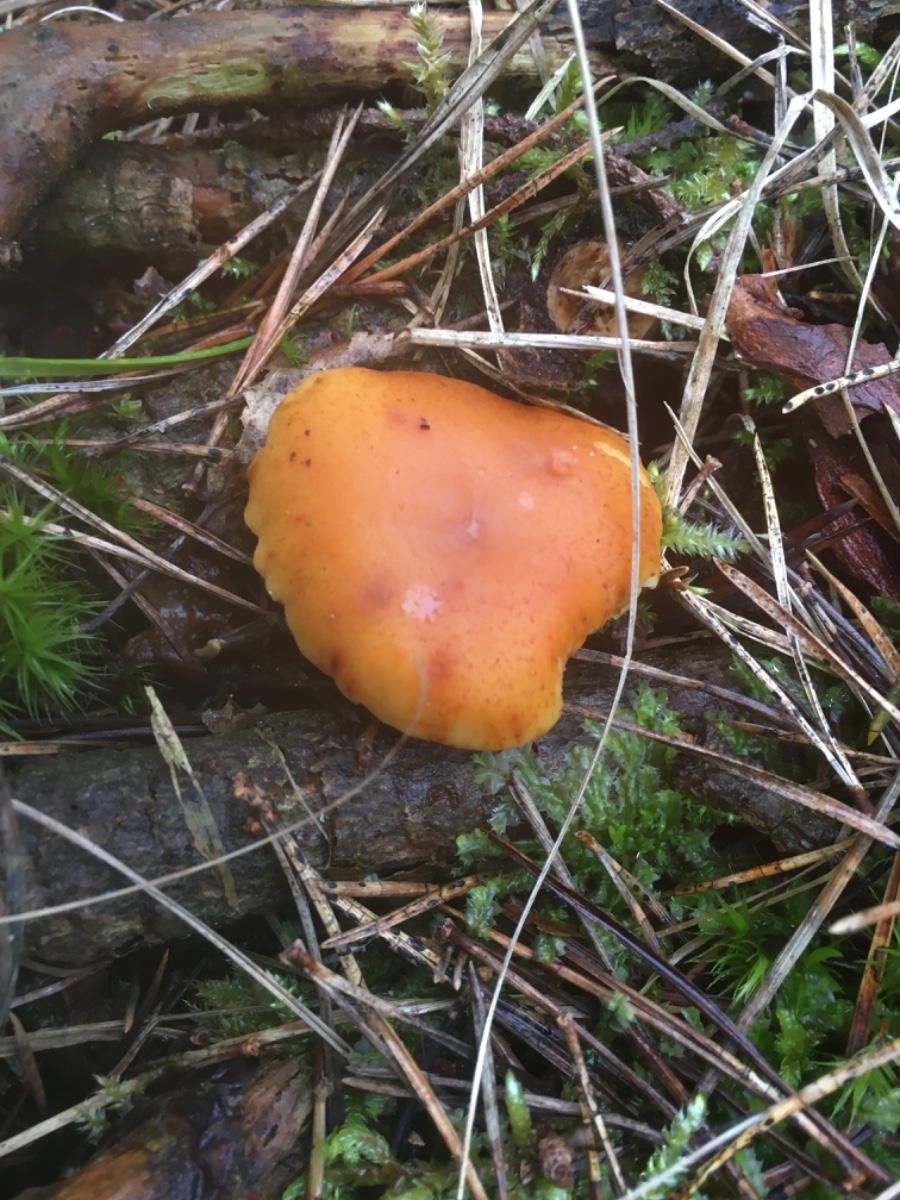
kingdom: Fungi
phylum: Basidiomycota
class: Agaricomycetes
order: Agaricales
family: Hymenogastraceae
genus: Gymnopilus
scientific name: Gymnopilus penetrans
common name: plettet flammehat
